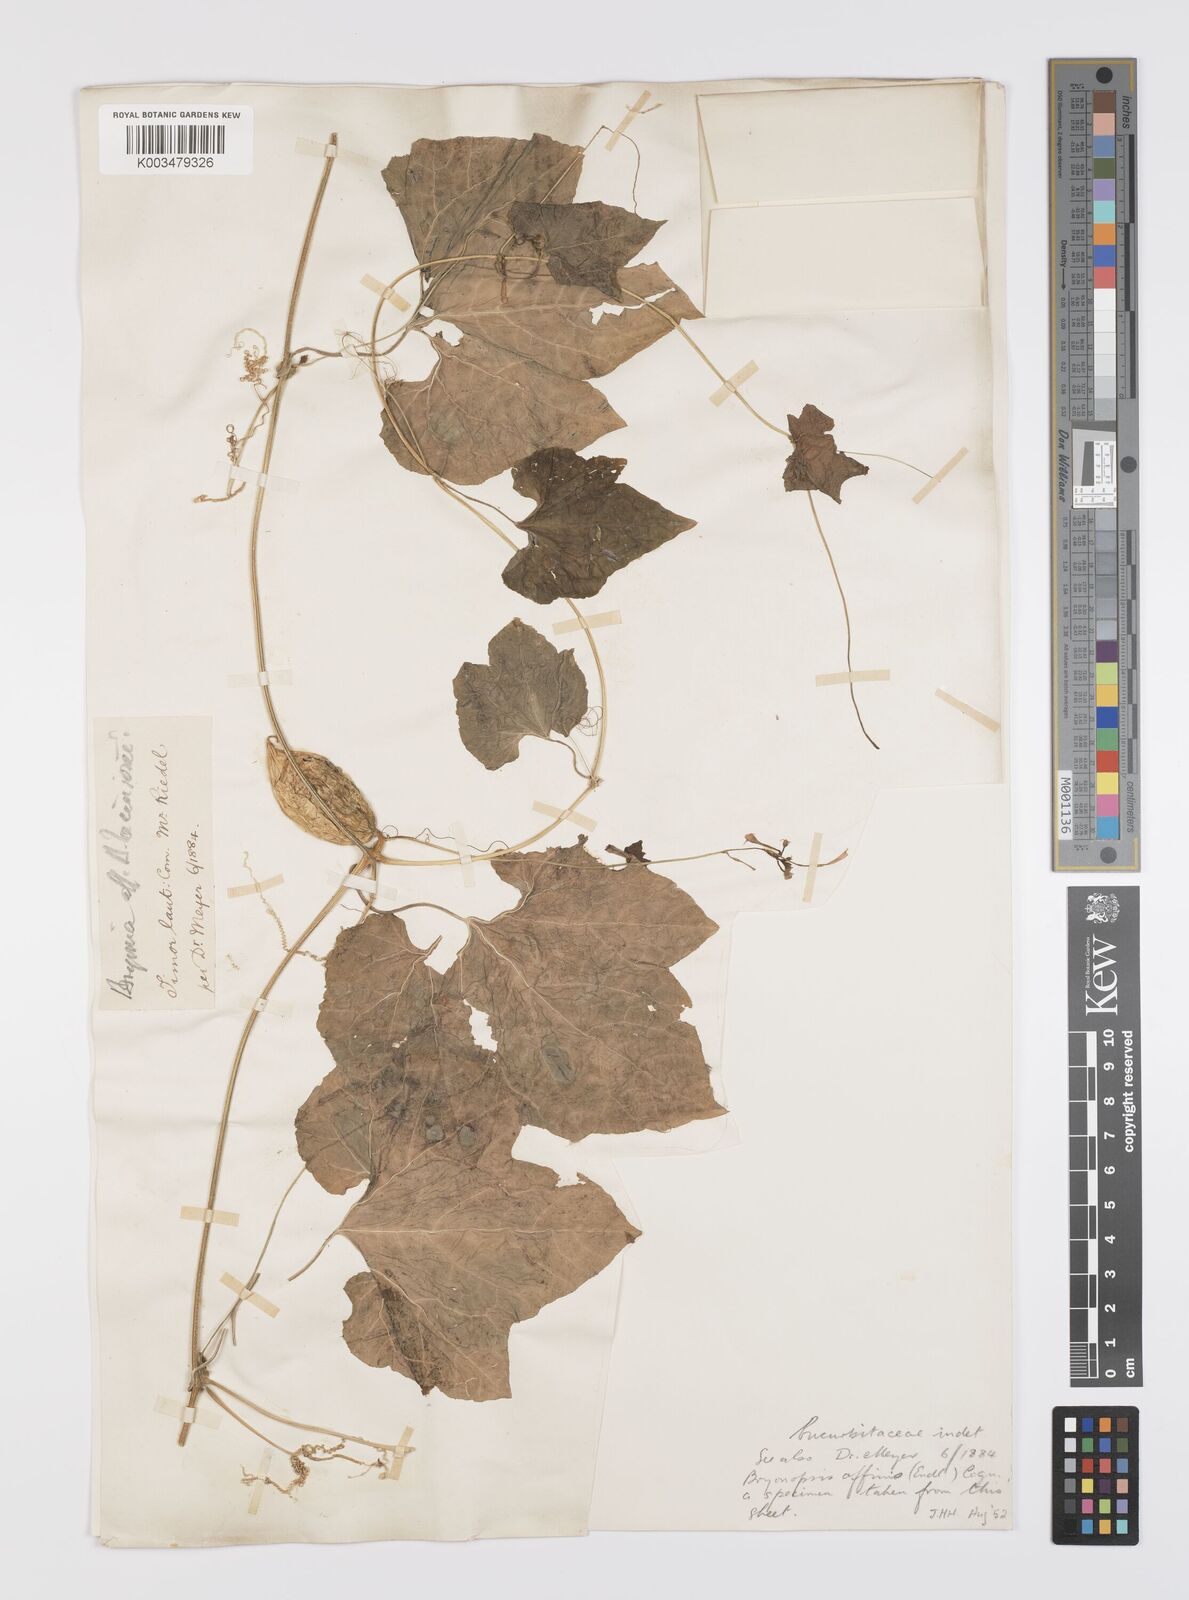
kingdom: Plantae
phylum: Tracheophyta
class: Magnoliopsida
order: Cucurbitales
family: Cucurbitaceae
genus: Trichosanthes
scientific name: Trichosanthes cucumerina
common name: Snakegourd
